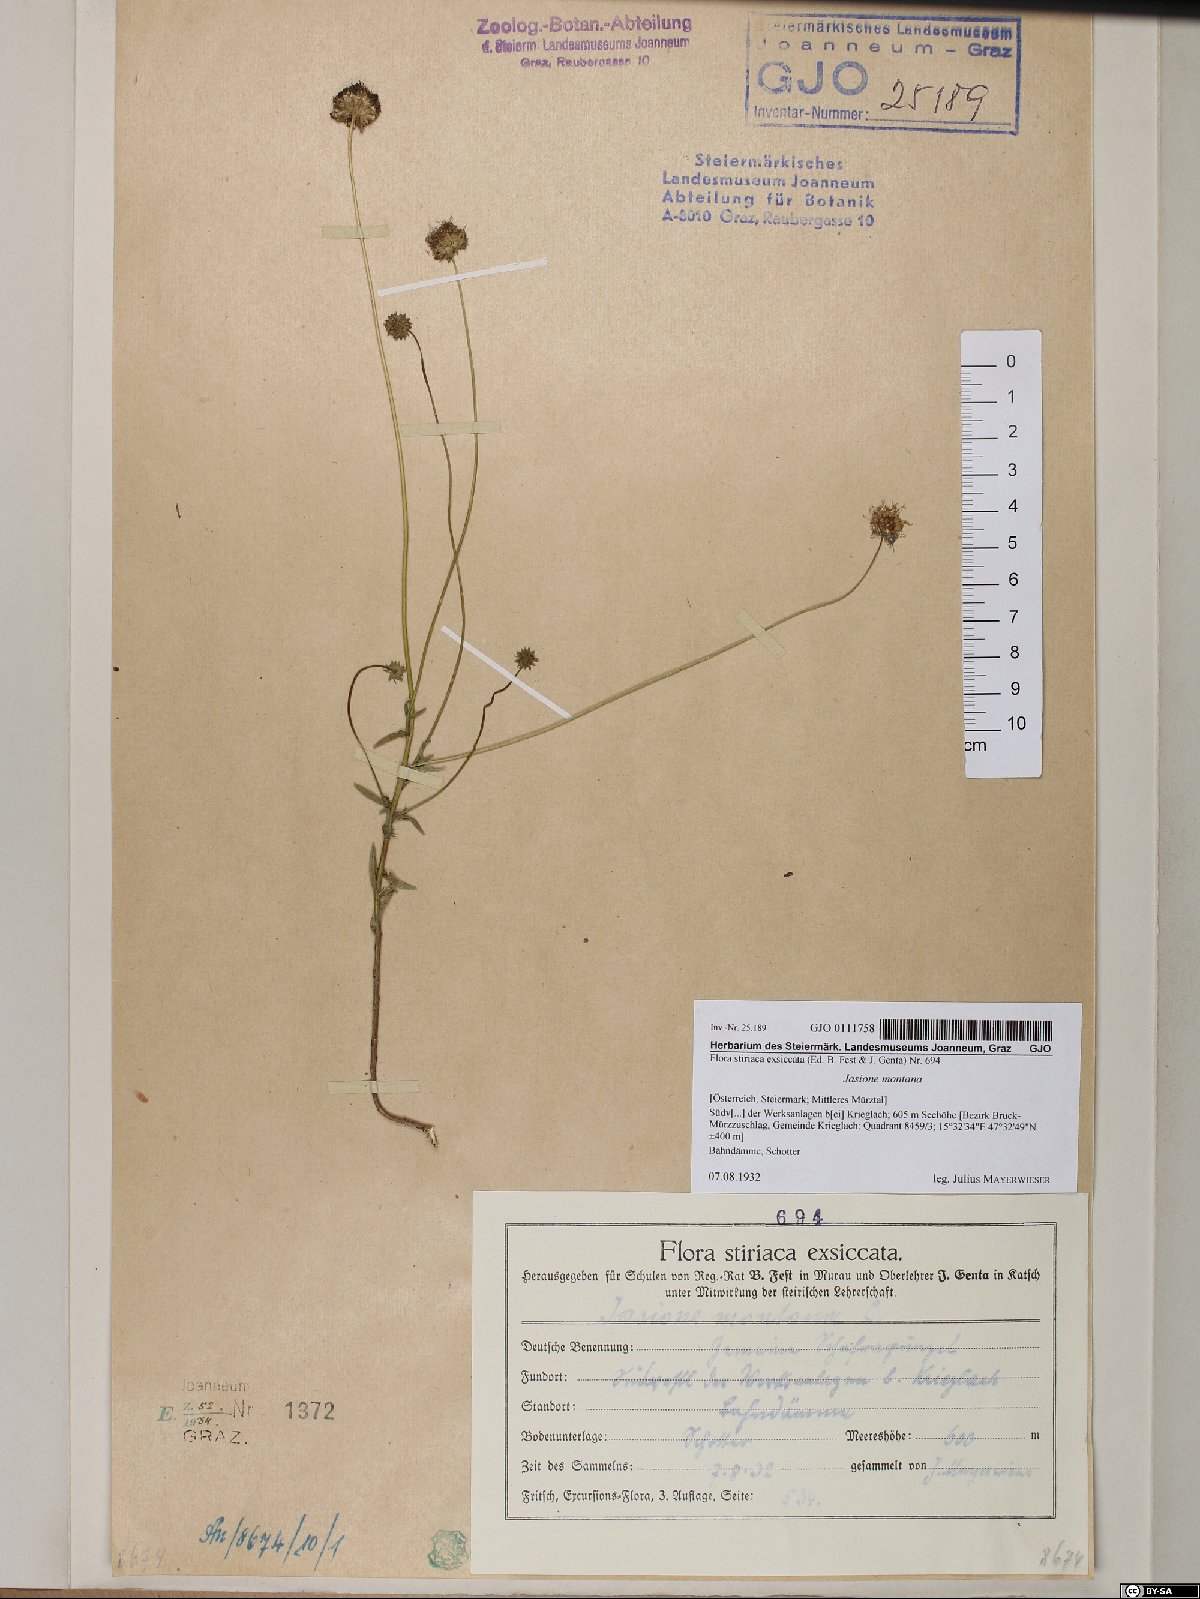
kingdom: Plantae
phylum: Tracheophyta
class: Magnoliopsida
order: Asterales
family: Campanulaceae
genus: Jasione
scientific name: Jasione montana
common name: Sheep's-bit
